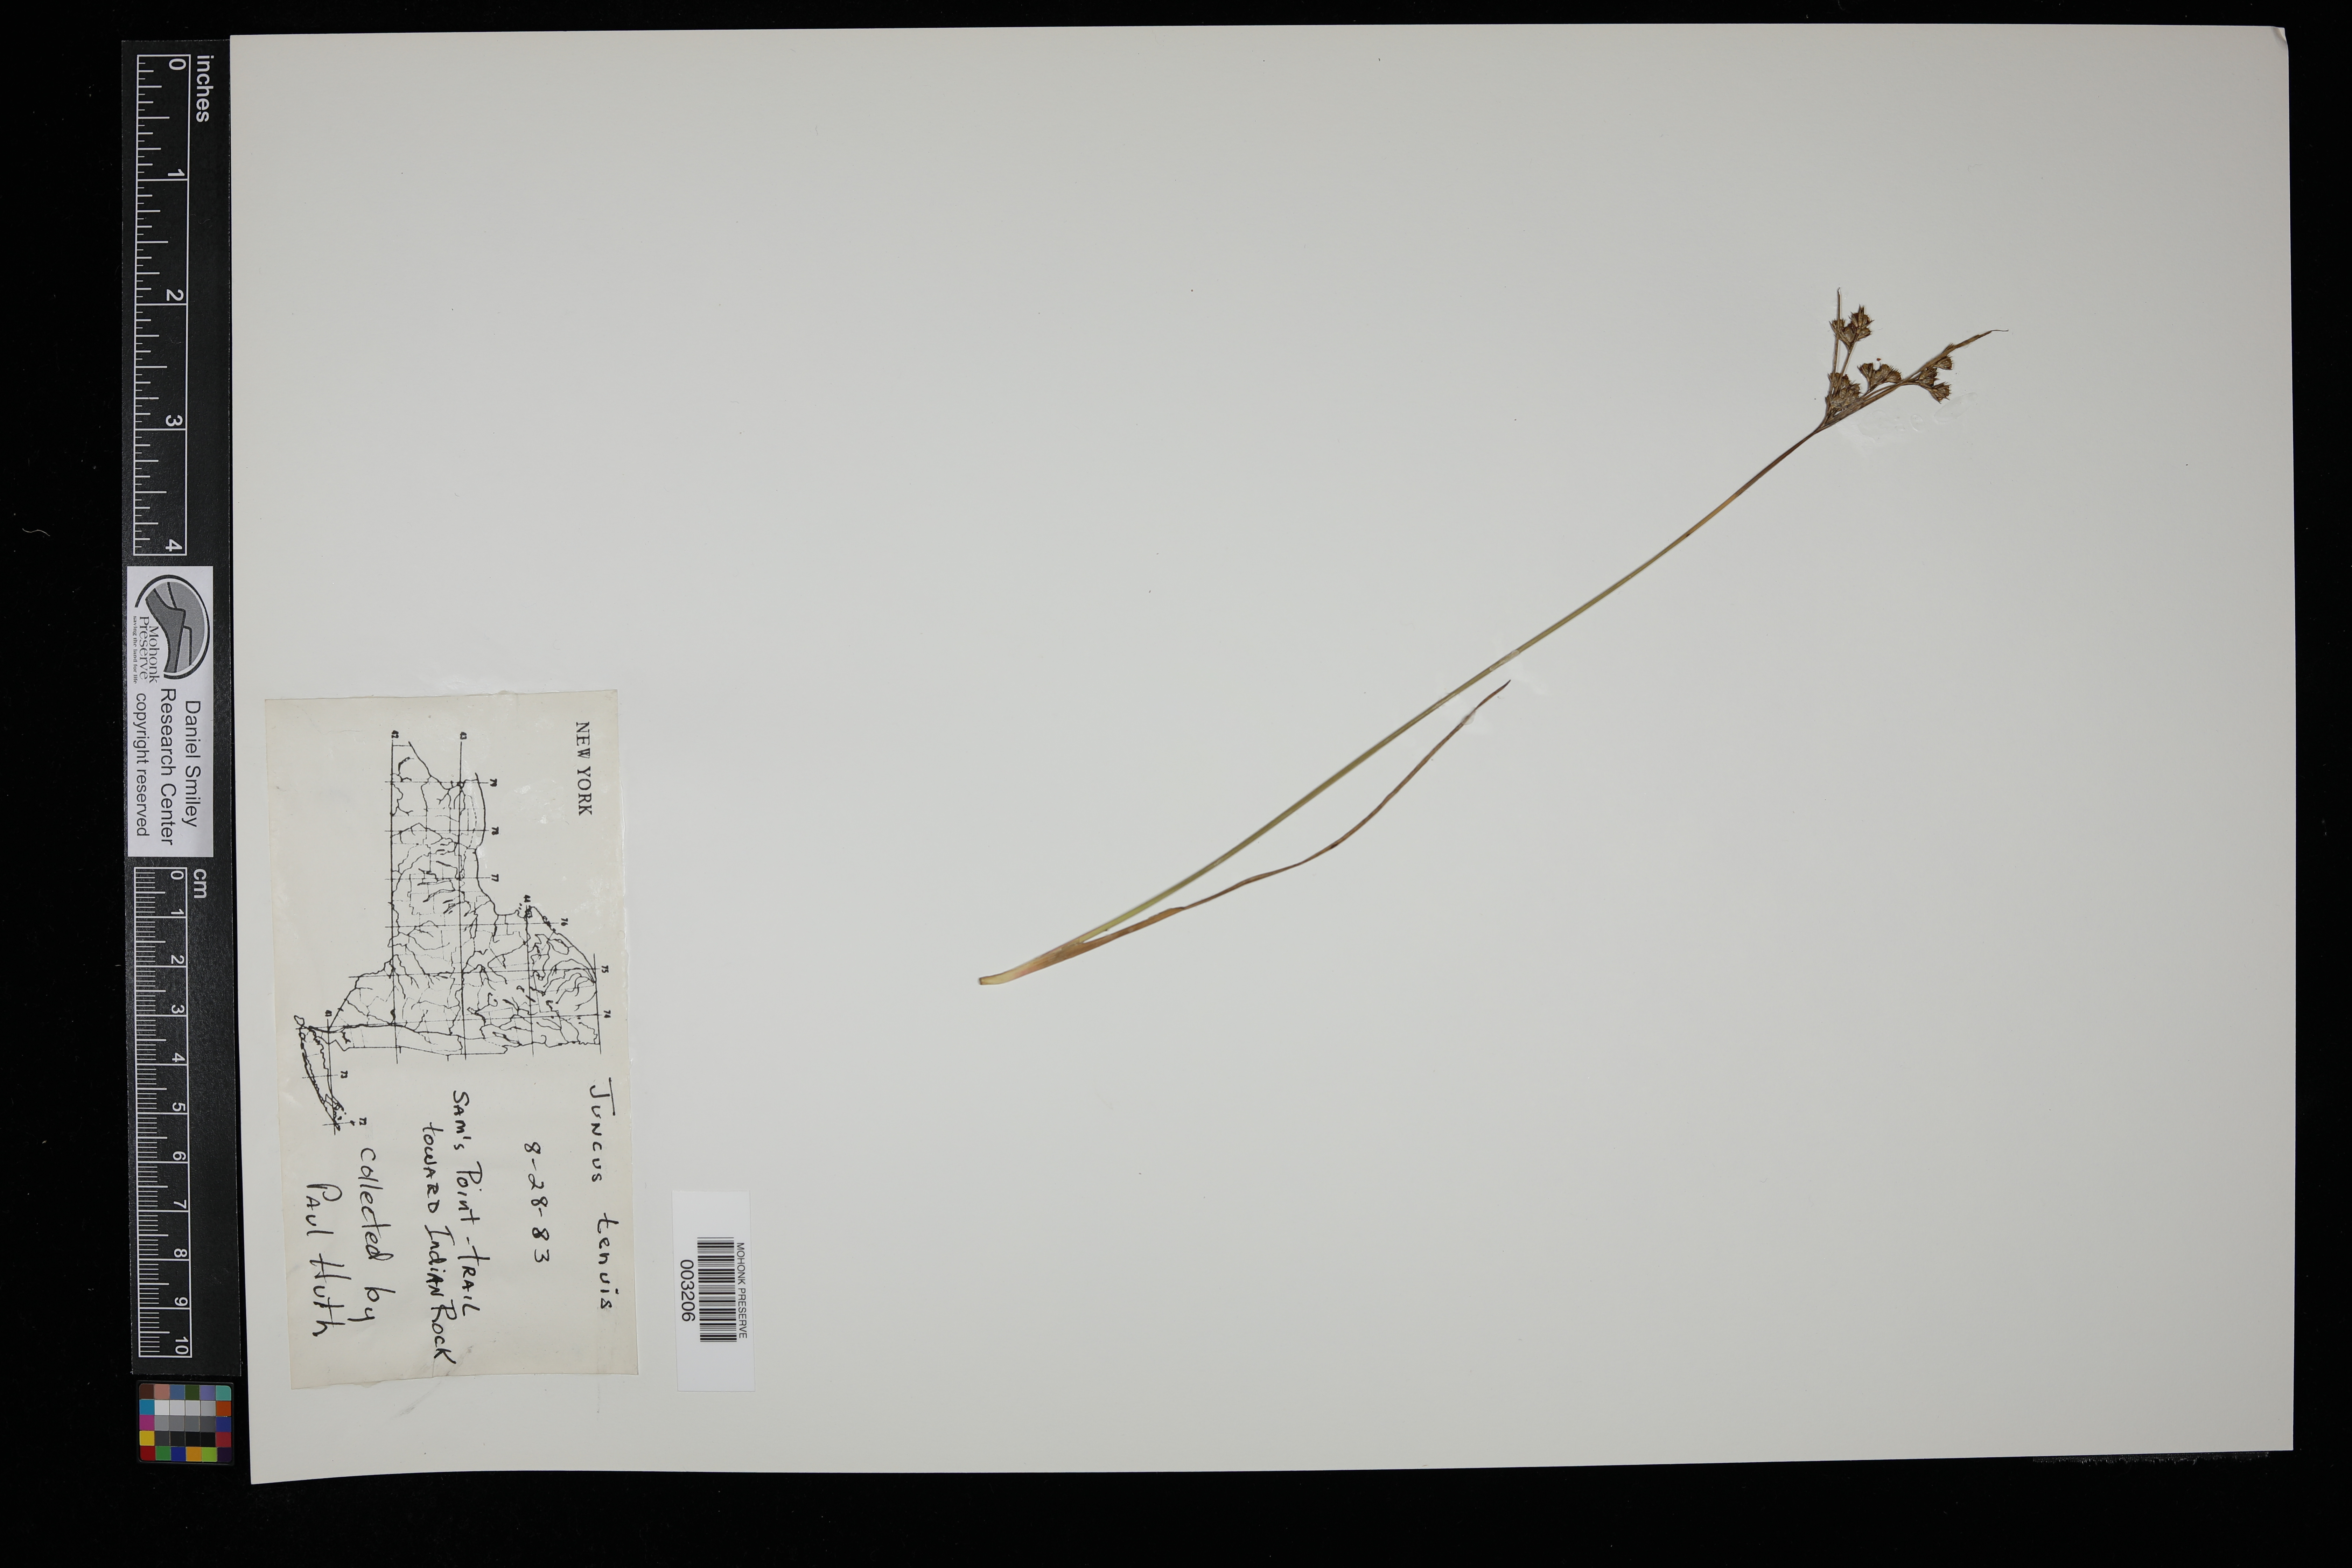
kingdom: Plantae
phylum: Tracheophyta
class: Liliopsida
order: Poales
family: Juncaceae
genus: Juncus
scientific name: Juncus tenuis
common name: Slender rush
